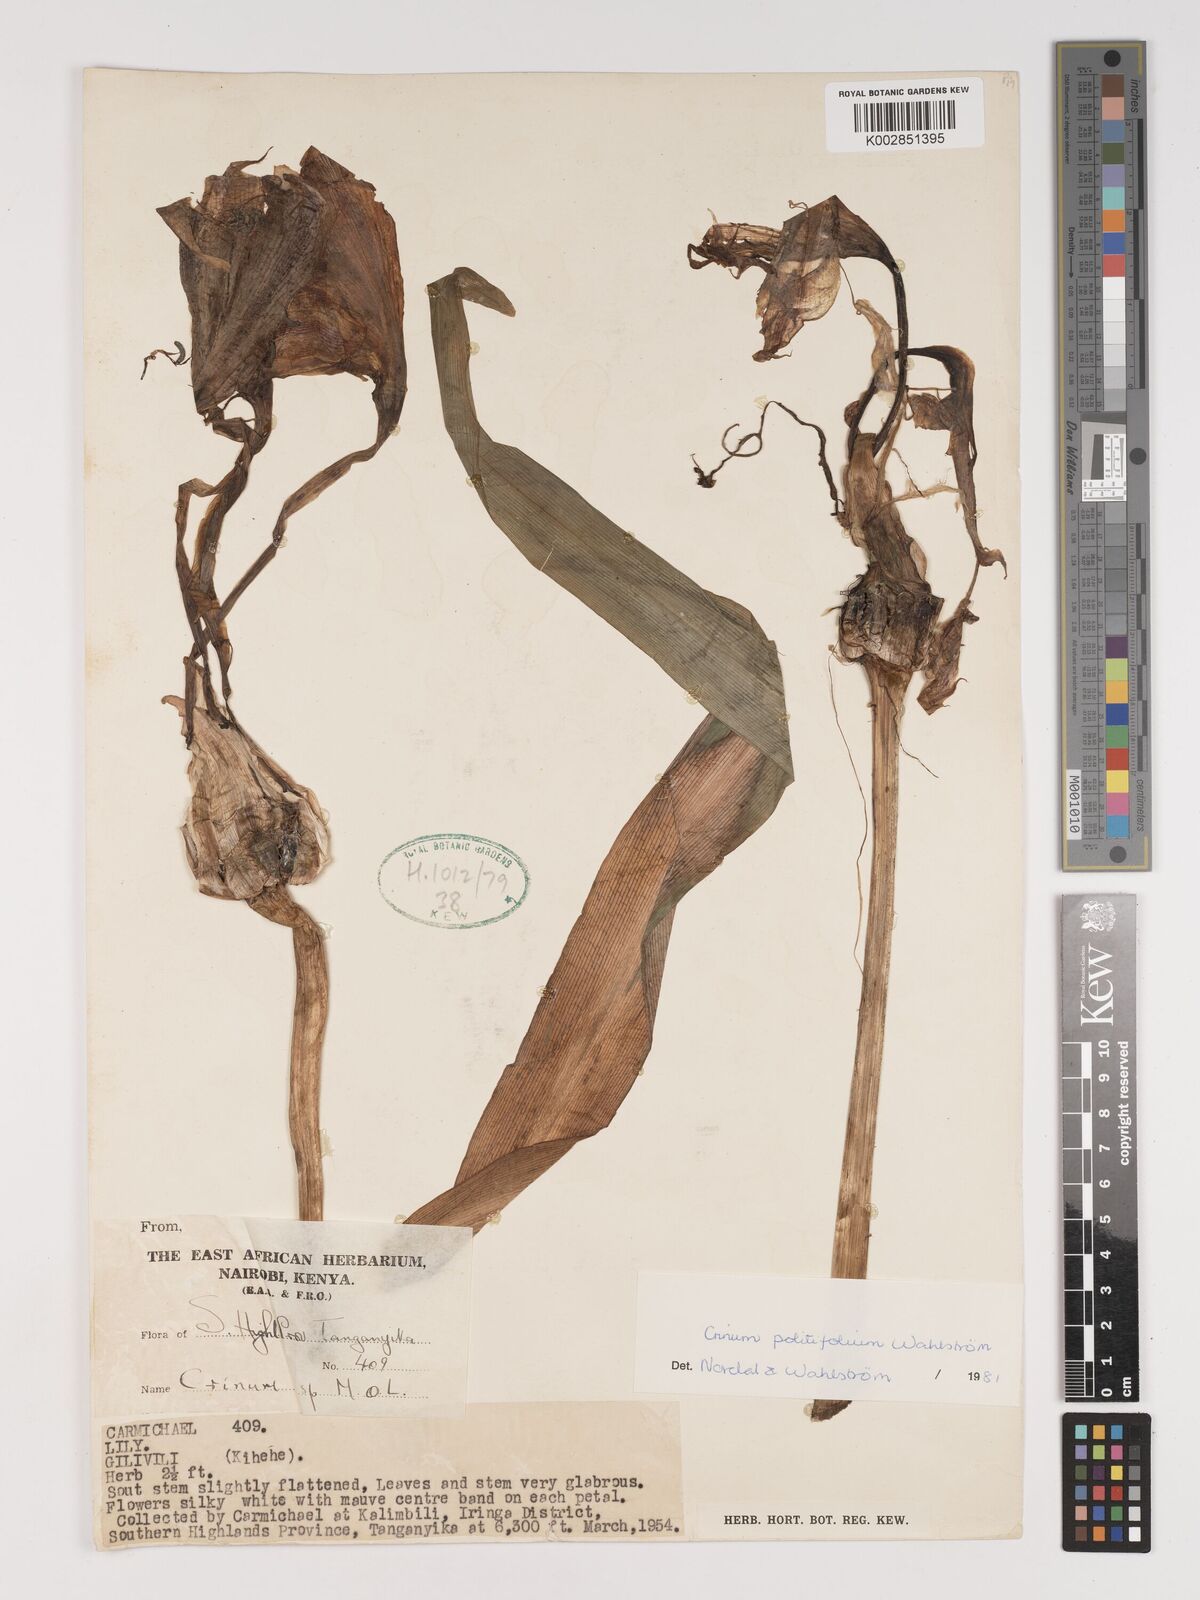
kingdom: Plantae
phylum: Tracheophyta
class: Liliopsida
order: Asparagales
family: Amaryllidaceae
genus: Crinum
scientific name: Crinum politifolium
